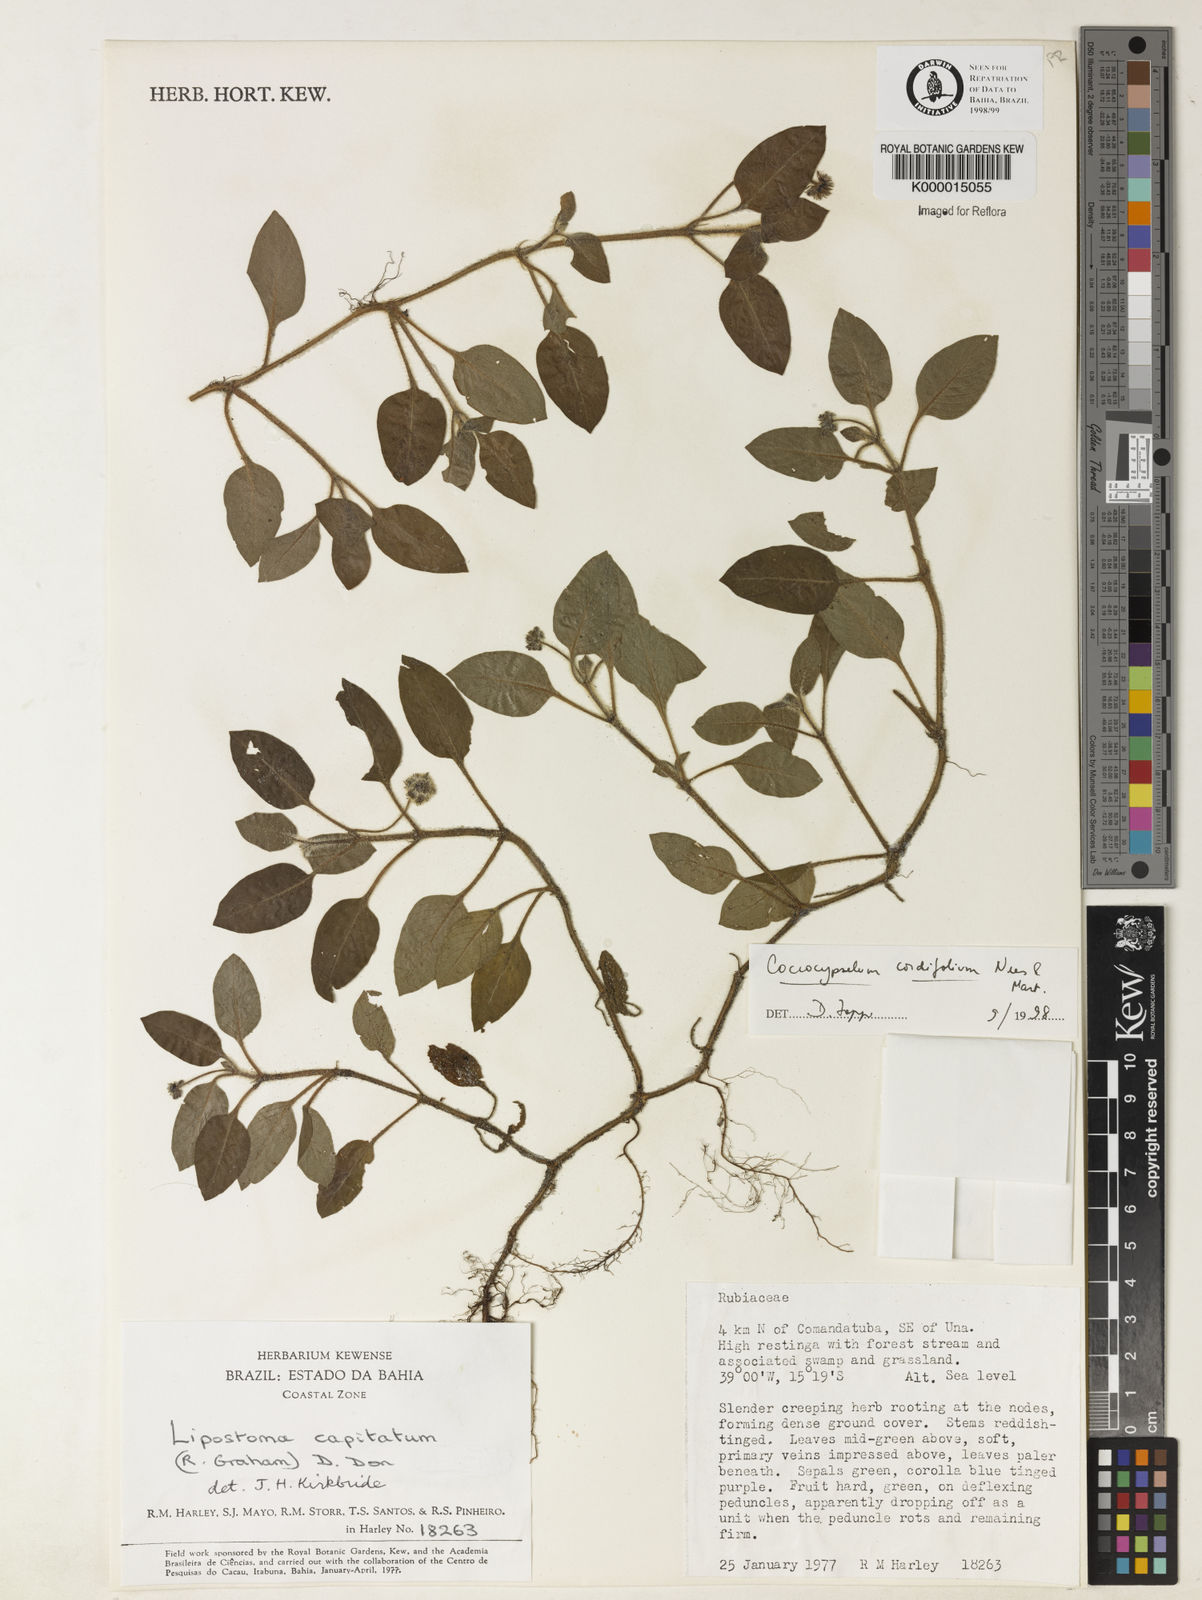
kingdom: Plantae
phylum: Tracheophyta
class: Magnoliopsida
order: Gentianales
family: Rubiaceae
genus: Coccocypselum
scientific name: Coccocypselum cordifolium
